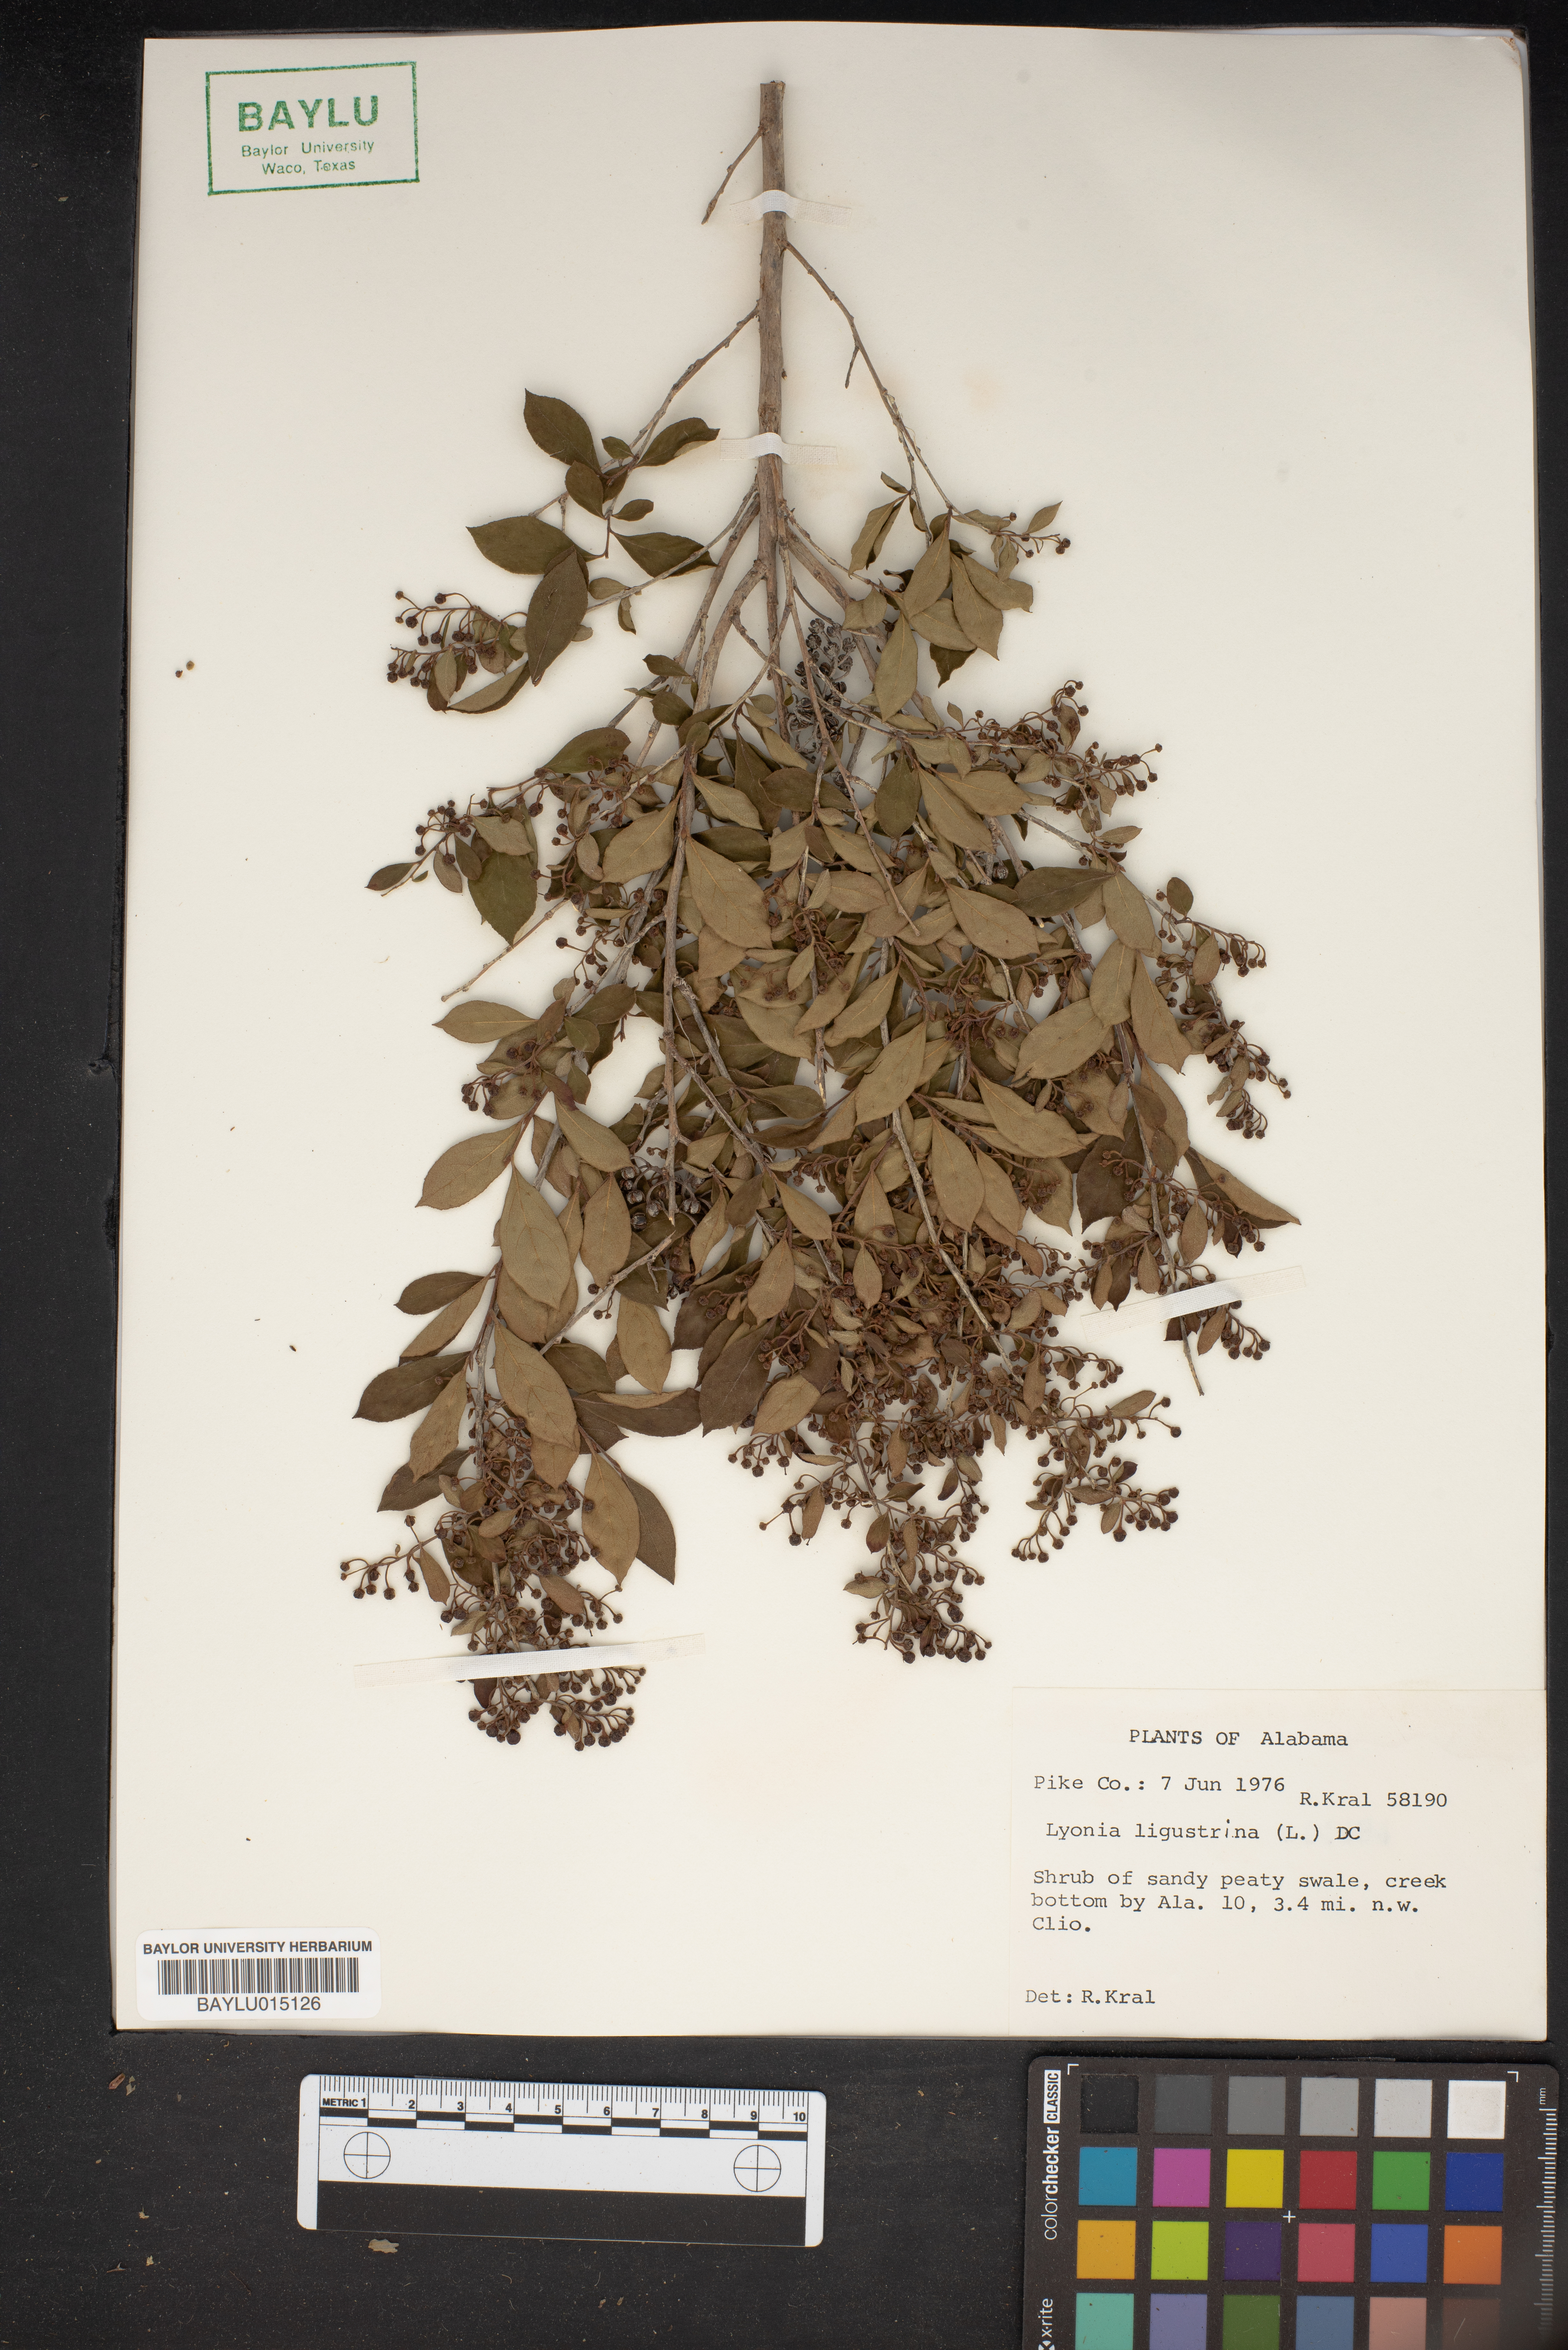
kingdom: Plantae
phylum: Tracheophyta
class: Magnoliopsida
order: Ericales
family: Ericaceae
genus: Lyonia
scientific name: Lyonia ligustrina
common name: Maleberry
